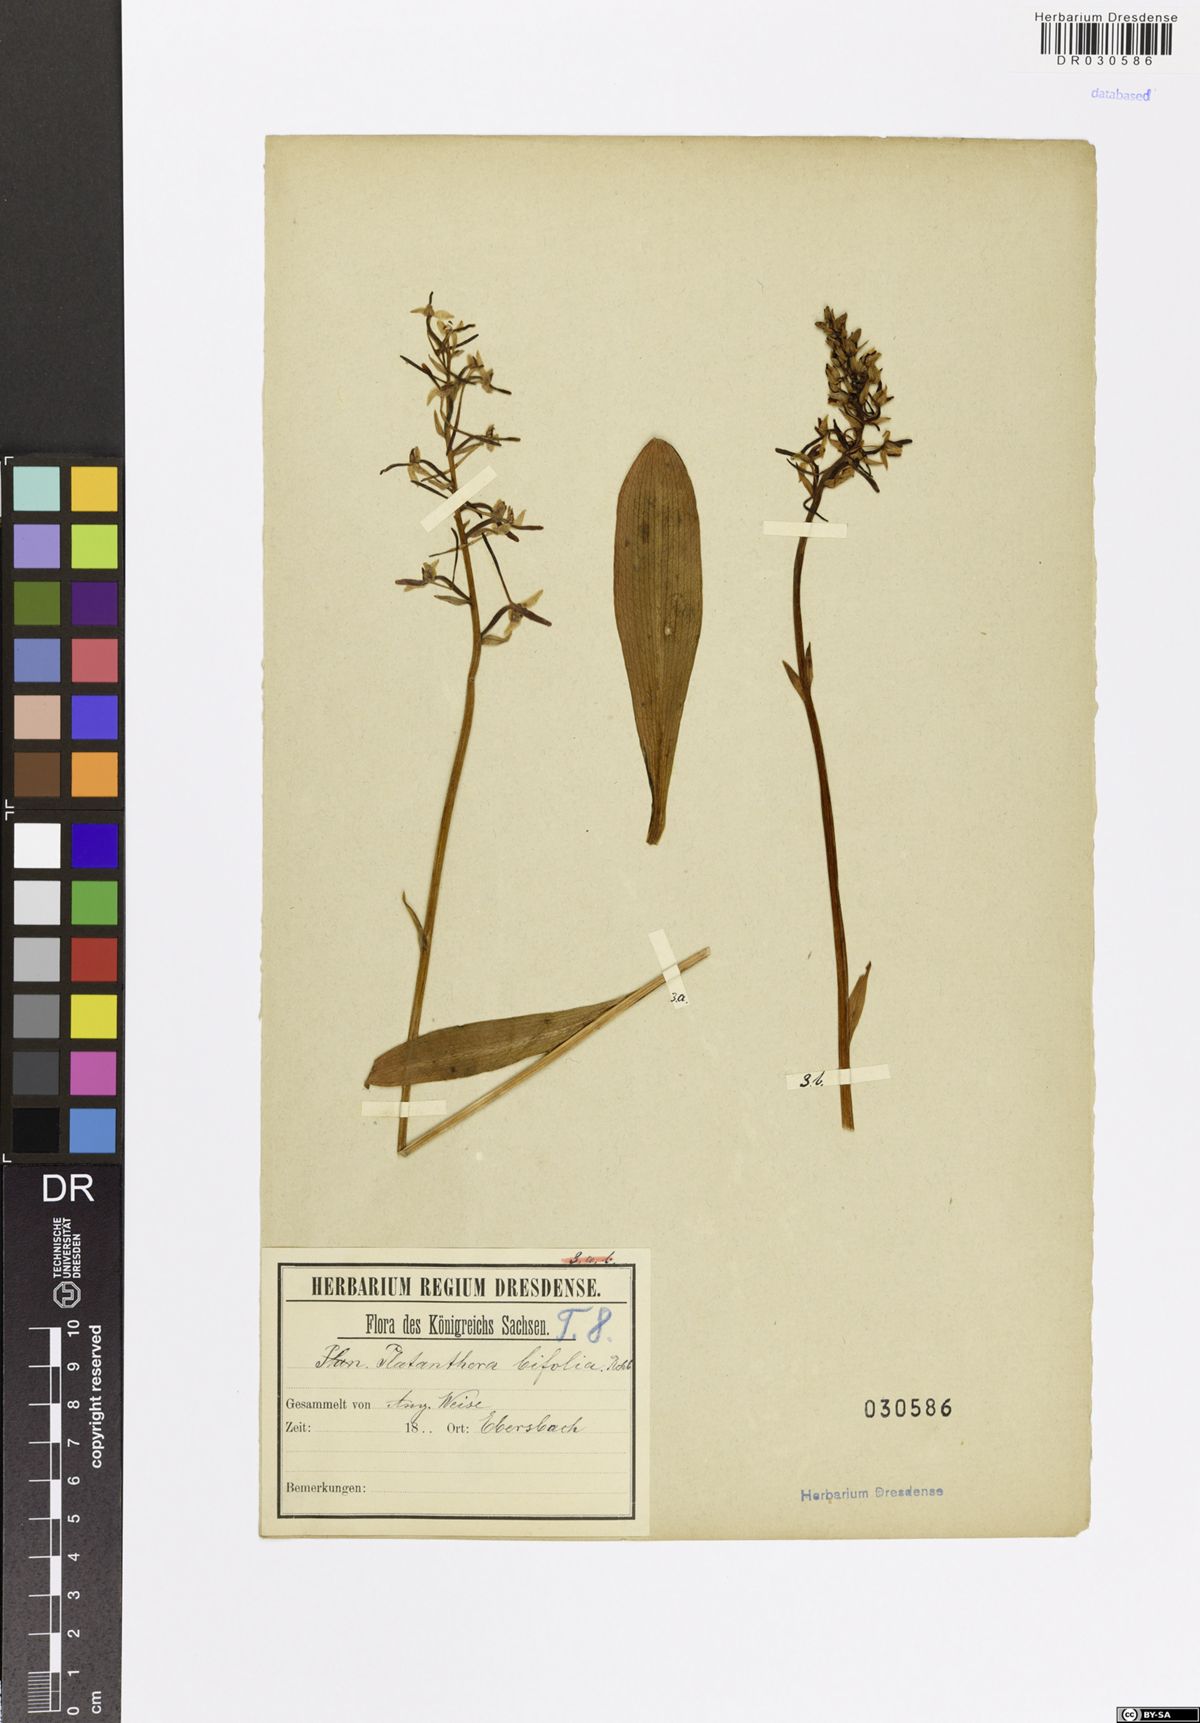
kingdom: Plantae
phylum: Tracheophyta
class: Liliopsida
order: Asparagales
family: Orchidaceae
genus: Platanthera
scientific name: Platanthera bifolia
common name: Lesser butterfly-orchid
